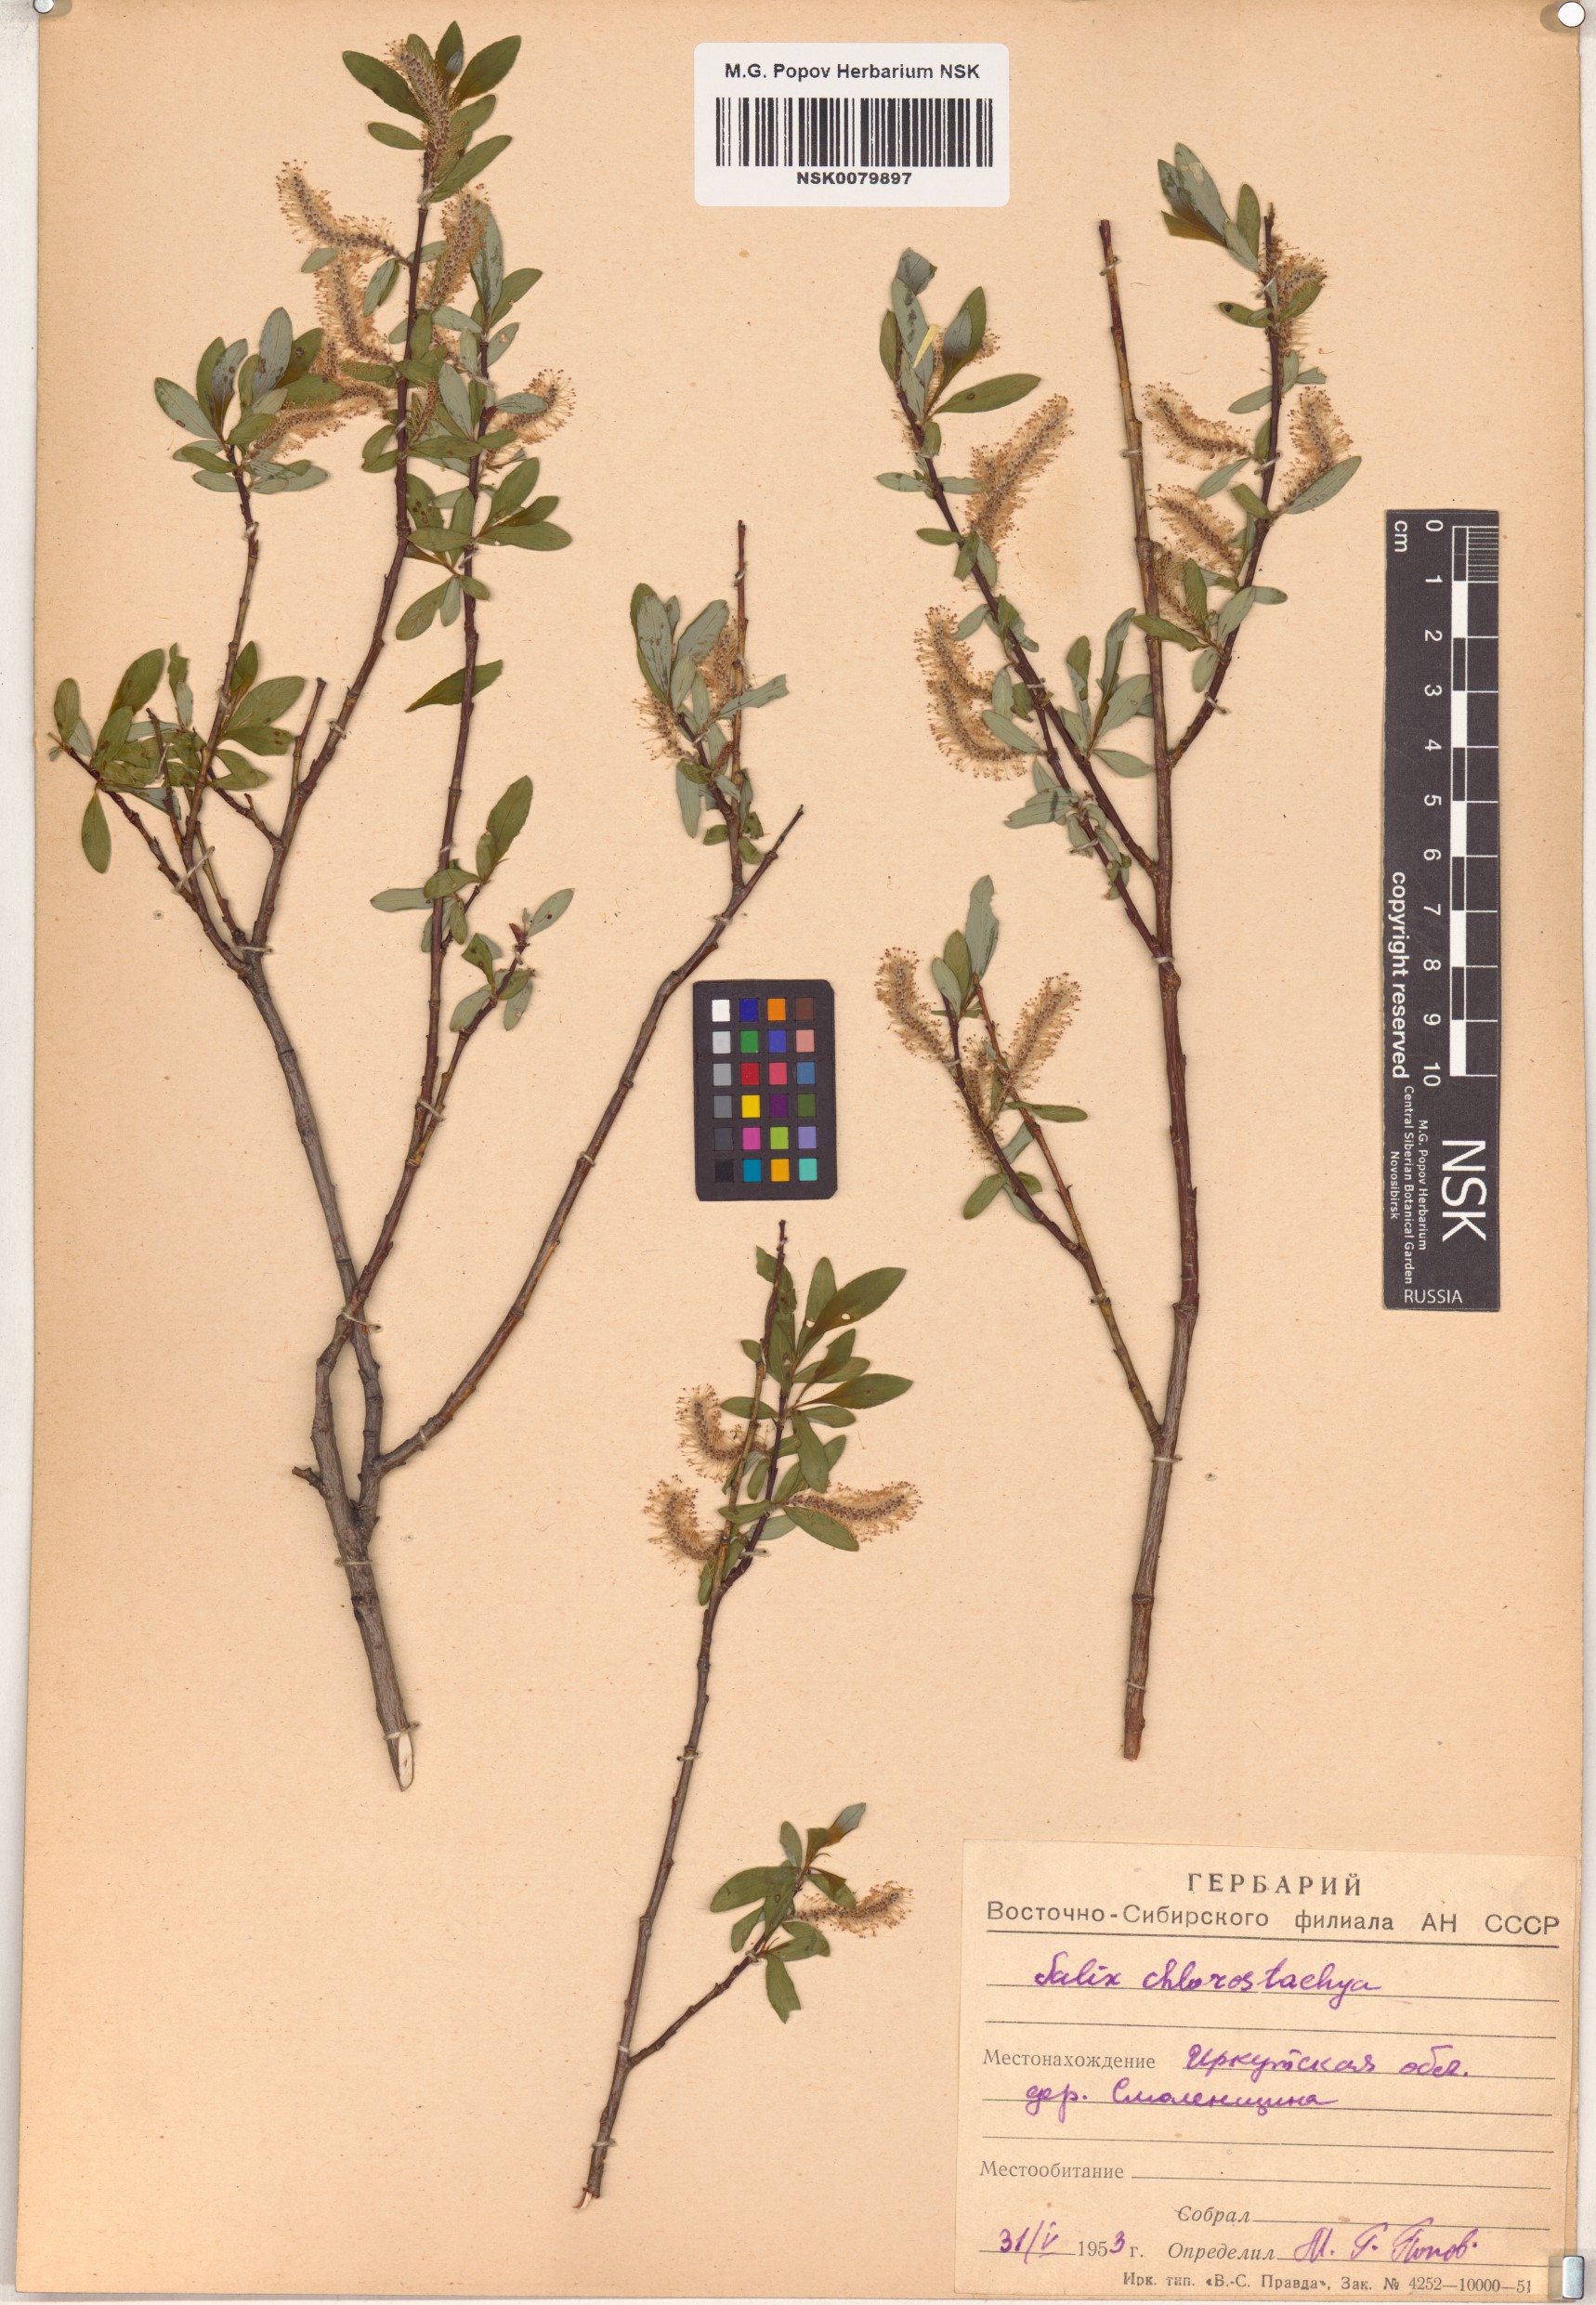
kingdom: Plantae
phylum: Tracheophyta
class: Magnoliopsida
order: Malpighiales
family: Salicaceae
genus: Salix
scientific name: Salix rhamnifolia
